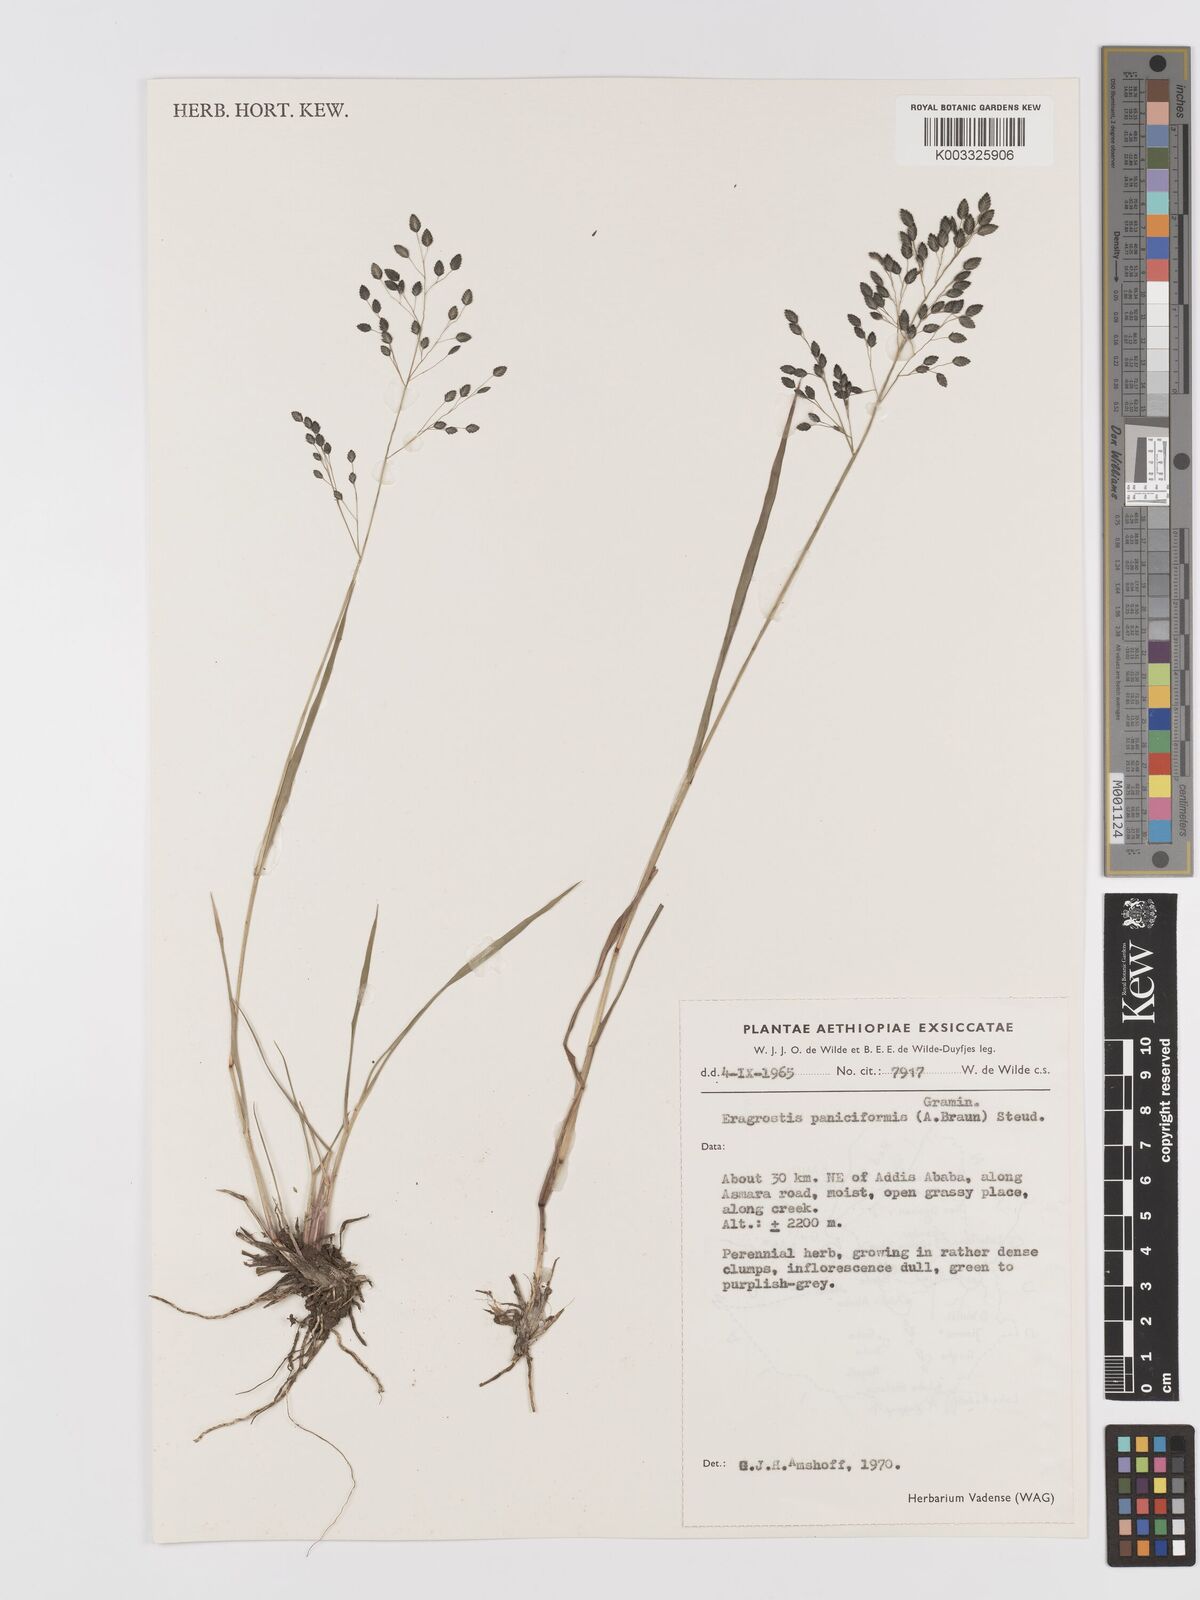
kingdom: Plantae
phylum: Tracheophyta
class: Liliopsida
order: Poales
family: Poaceae
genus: Eragrostis
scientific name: Eragrostis paniciformis
